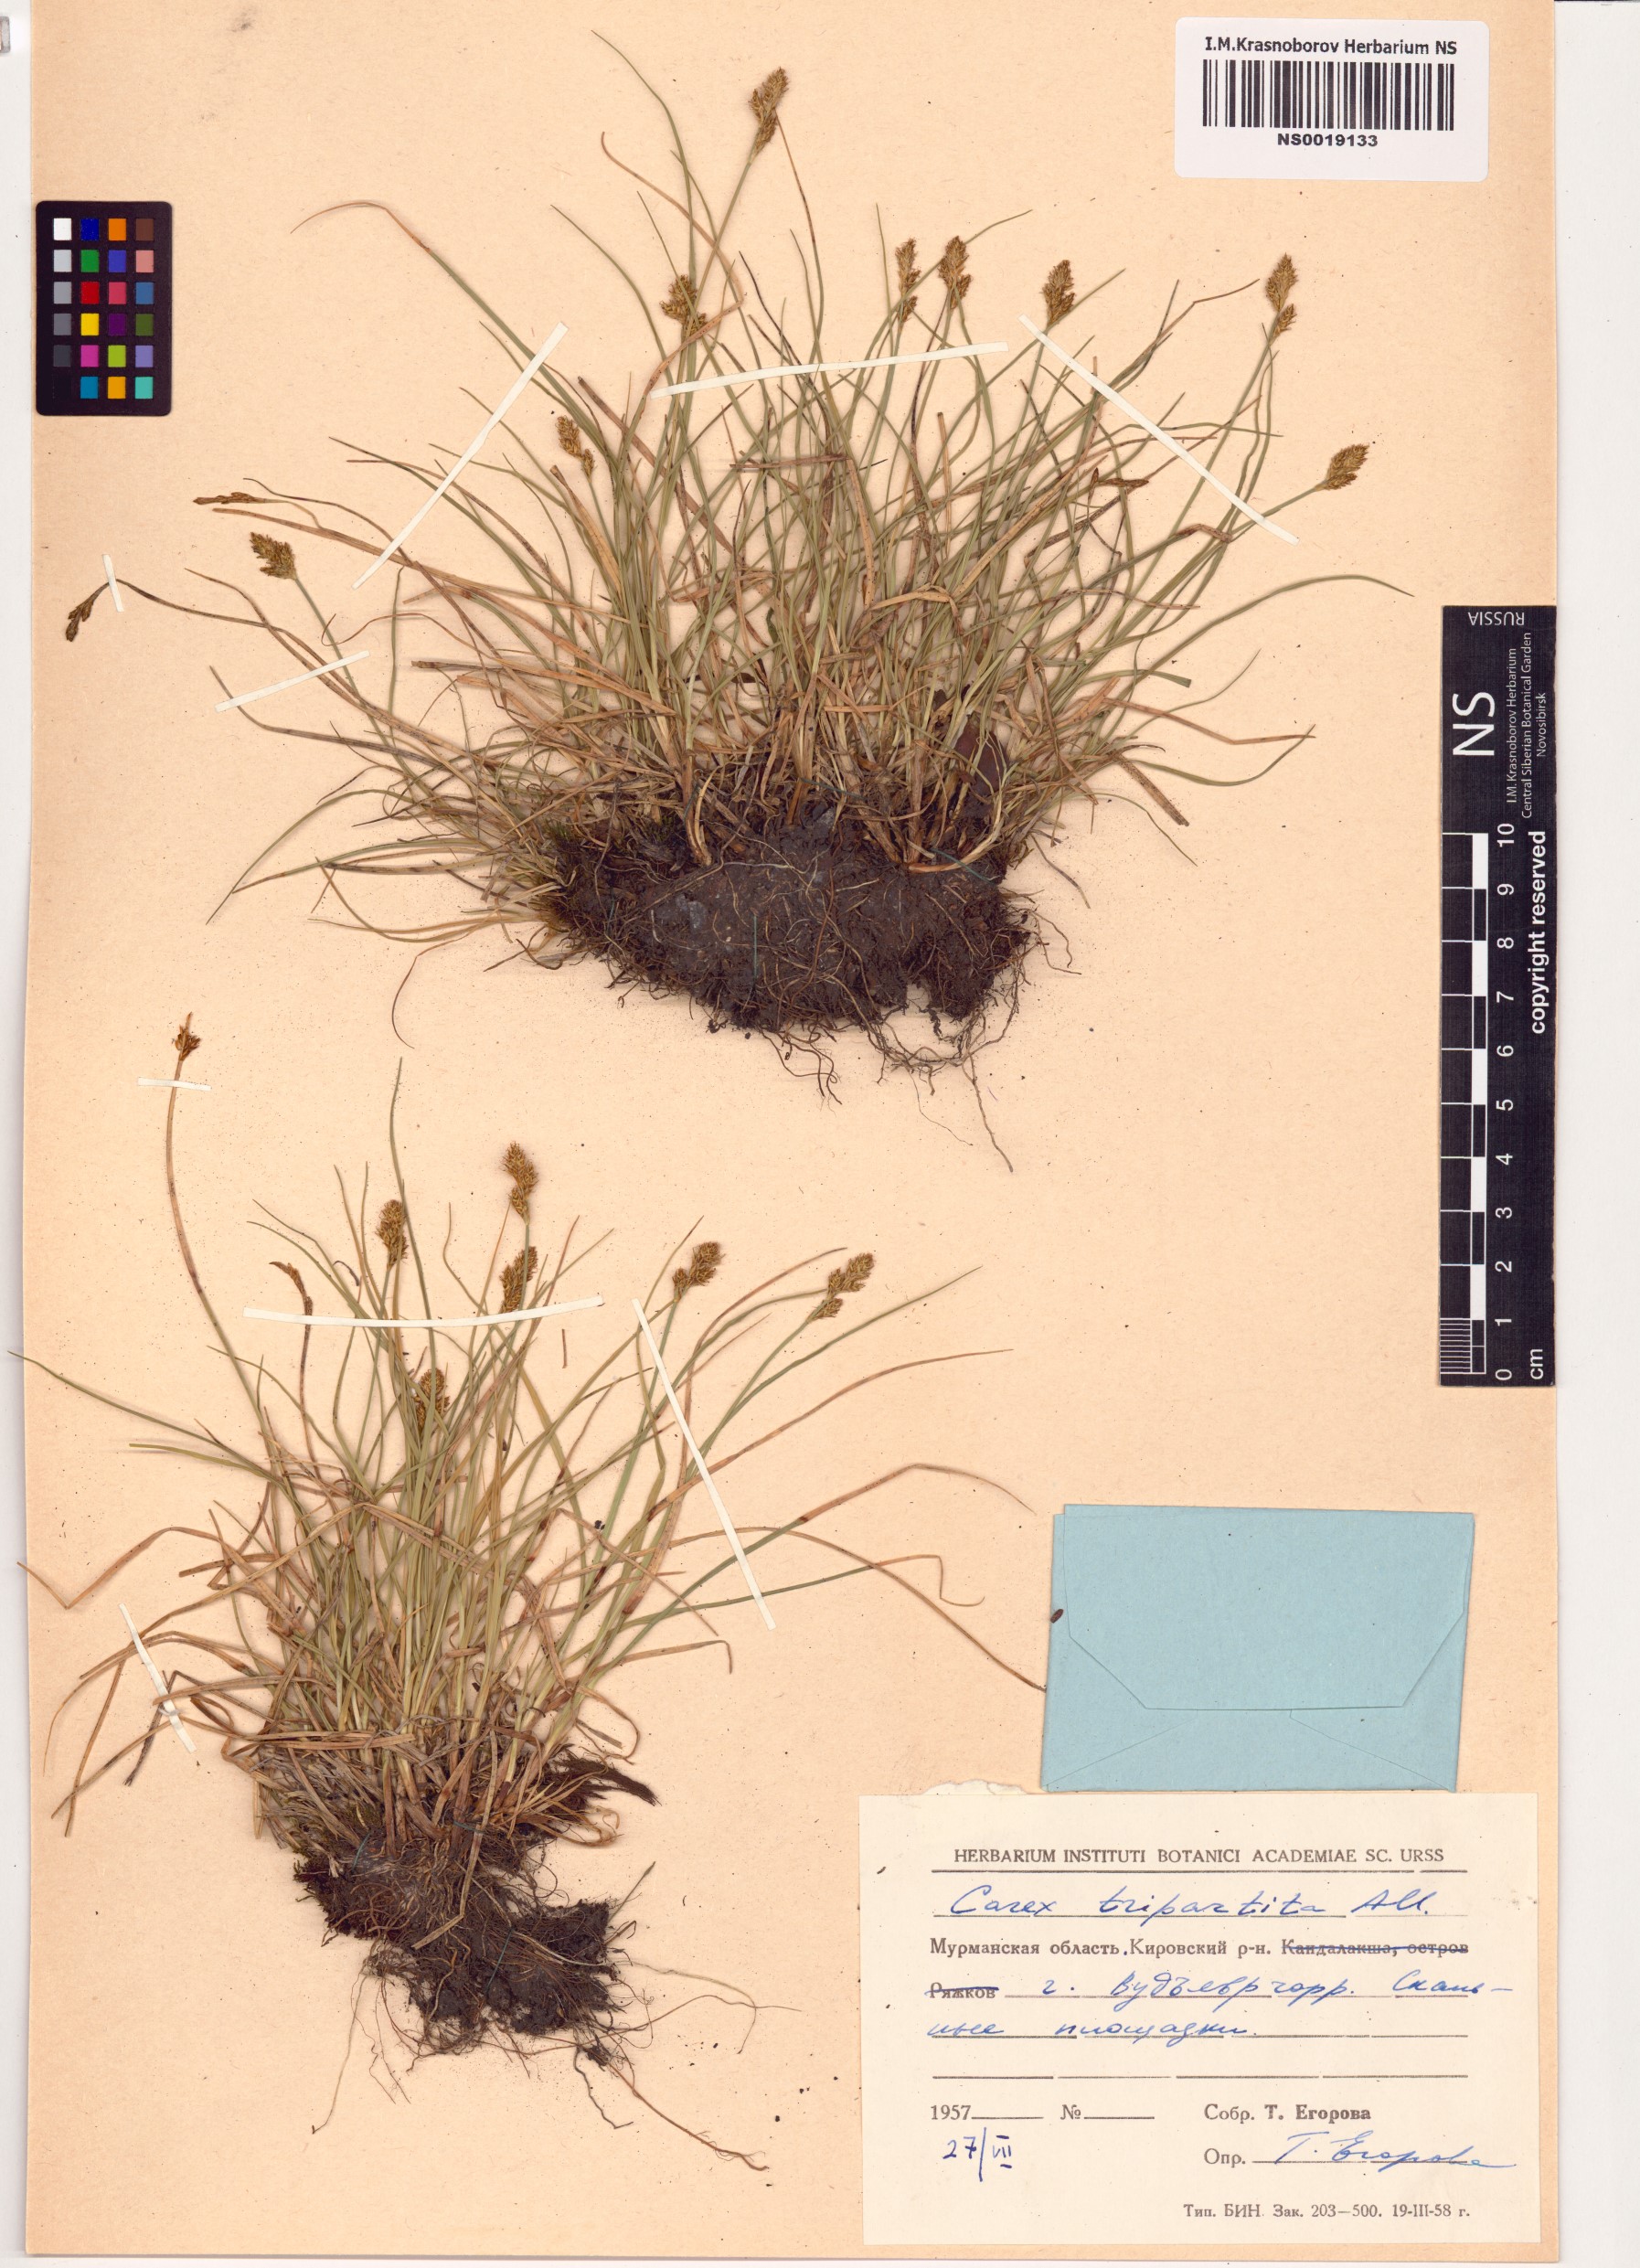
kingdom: Plantae
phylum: Tracheophyta
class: Liliopsida
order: Poales
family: Cyperaceae
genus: Carex
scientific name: Carex lachenalii
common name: Hare's-foot sedge
